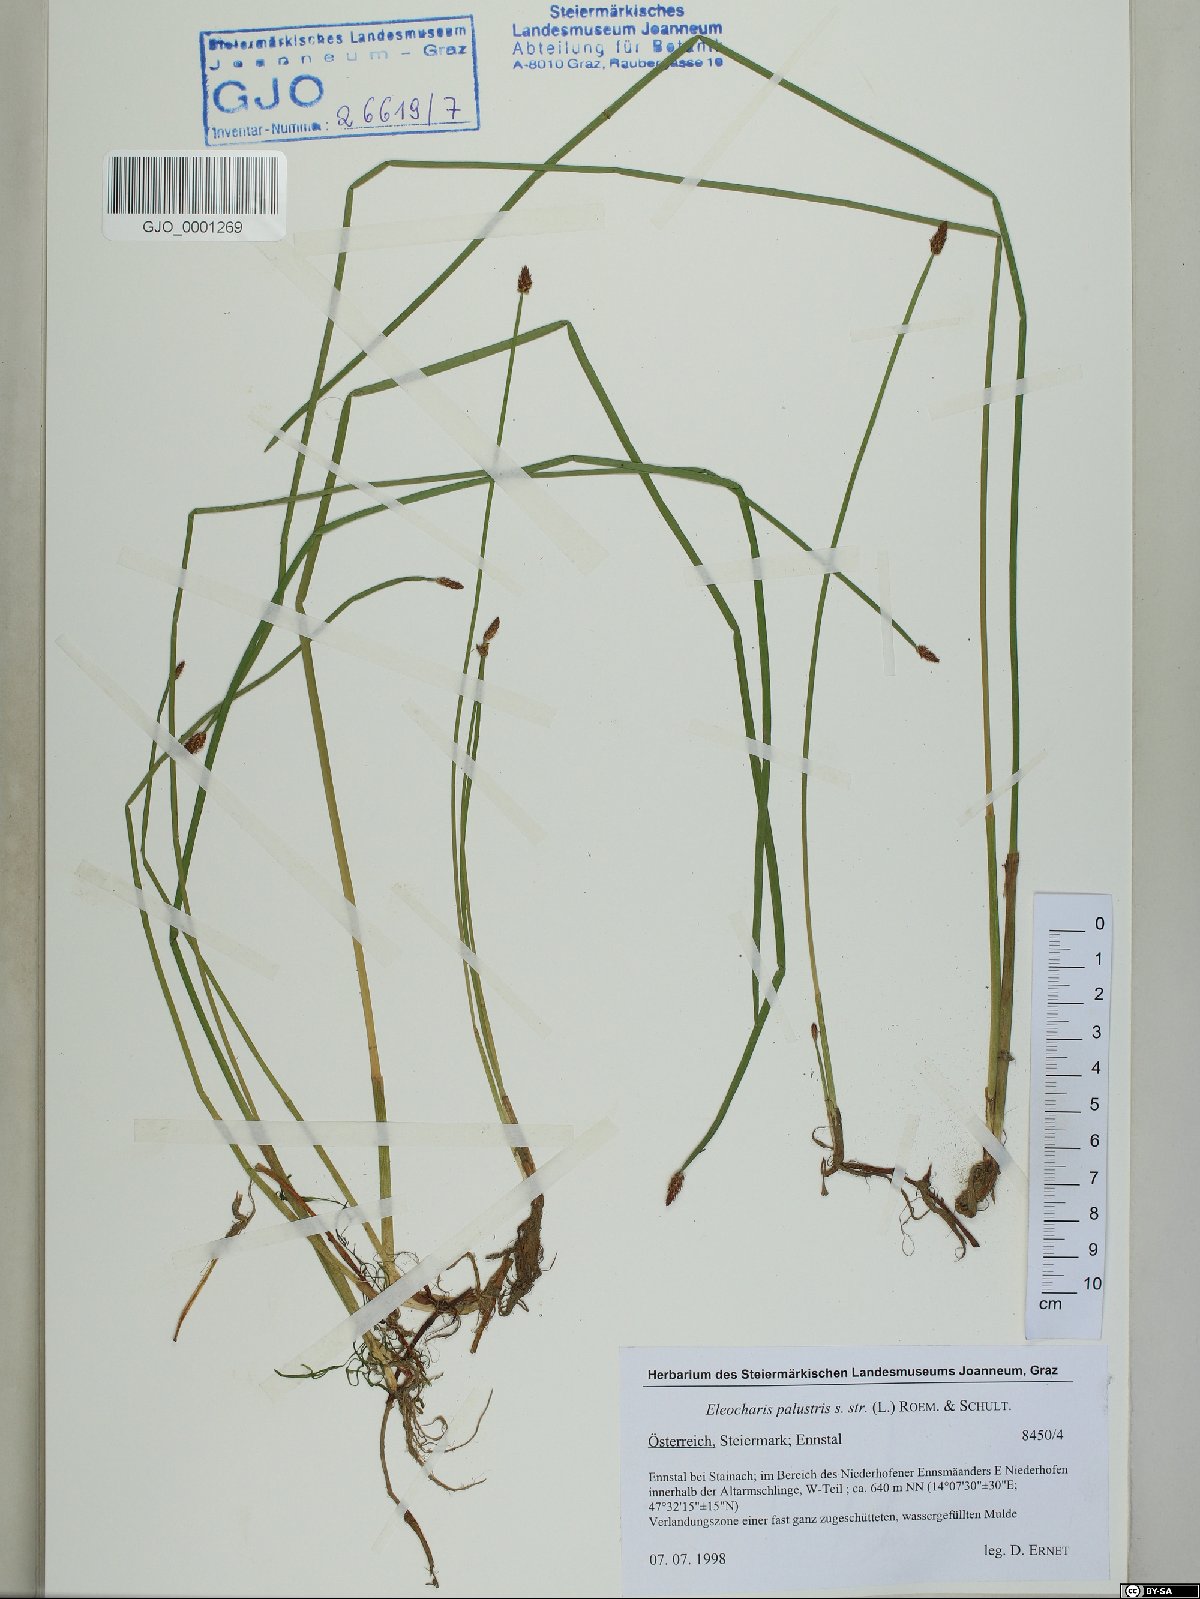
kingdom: Plantae
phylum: Tracheophyta
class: Liliopsida
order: Poales
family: Cyperaceae
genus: Eleocharis
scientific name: Eleocharis palustris
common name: Common spike-rush
